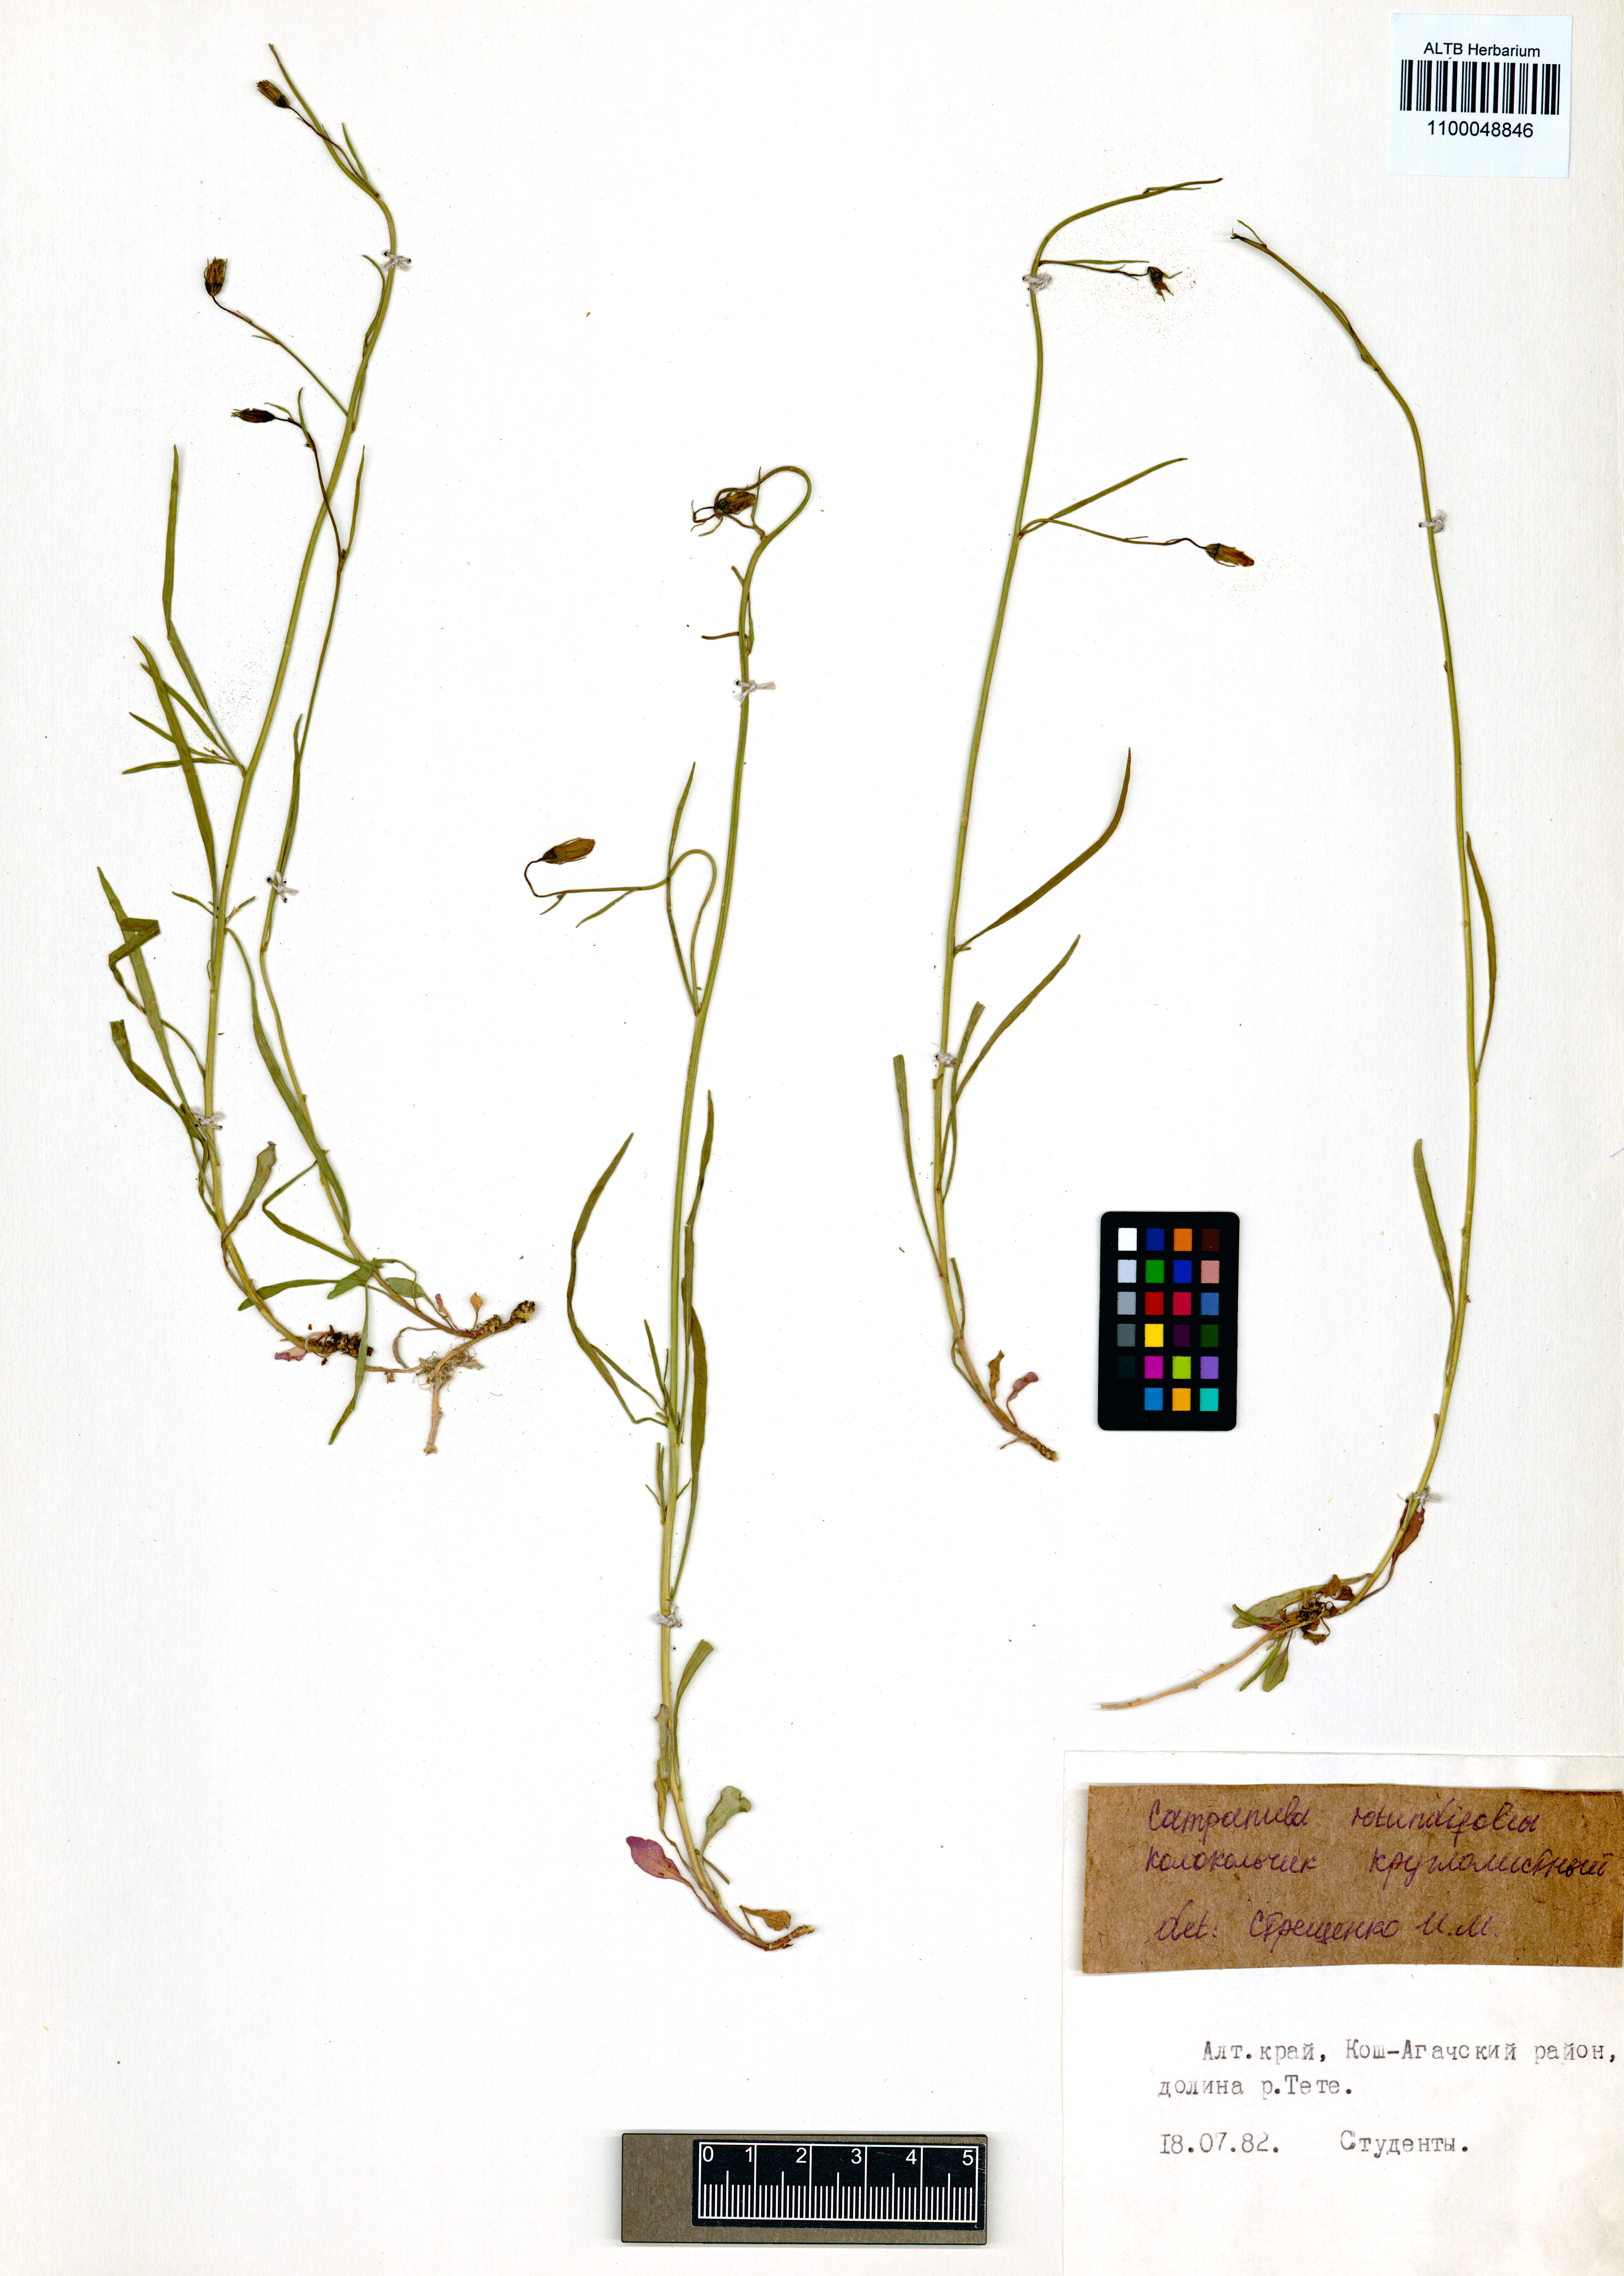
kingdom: Plantae
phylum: Tracheophyta
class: Magnoliopsida
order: Asterales
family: Campanulaceae
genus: Campanula
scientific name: Campanula rotundifolia
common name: Harebell
